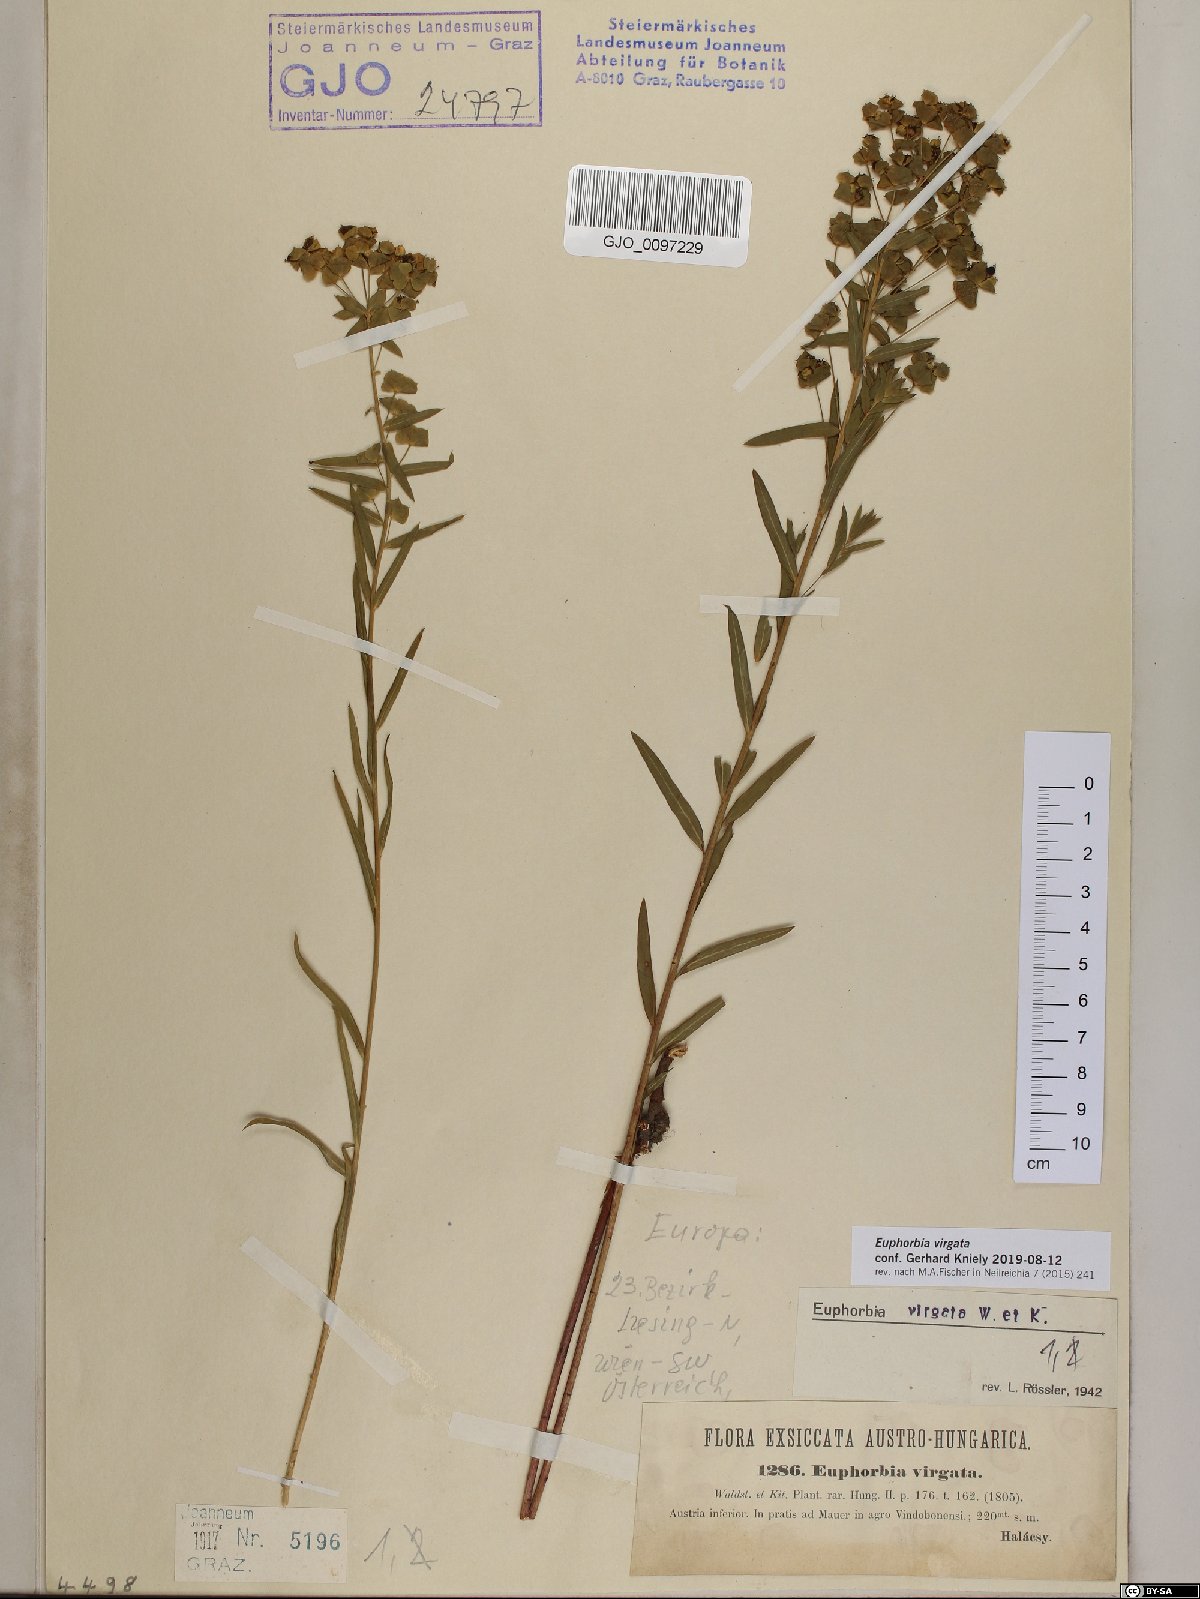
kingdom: Plantae
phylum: Tracheophyta
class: Magnoliopsida
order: Malpighiales
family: Euphorbiaceae
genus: Euphorbia
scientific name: Euphorbia virgata
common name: Leafy spurge
